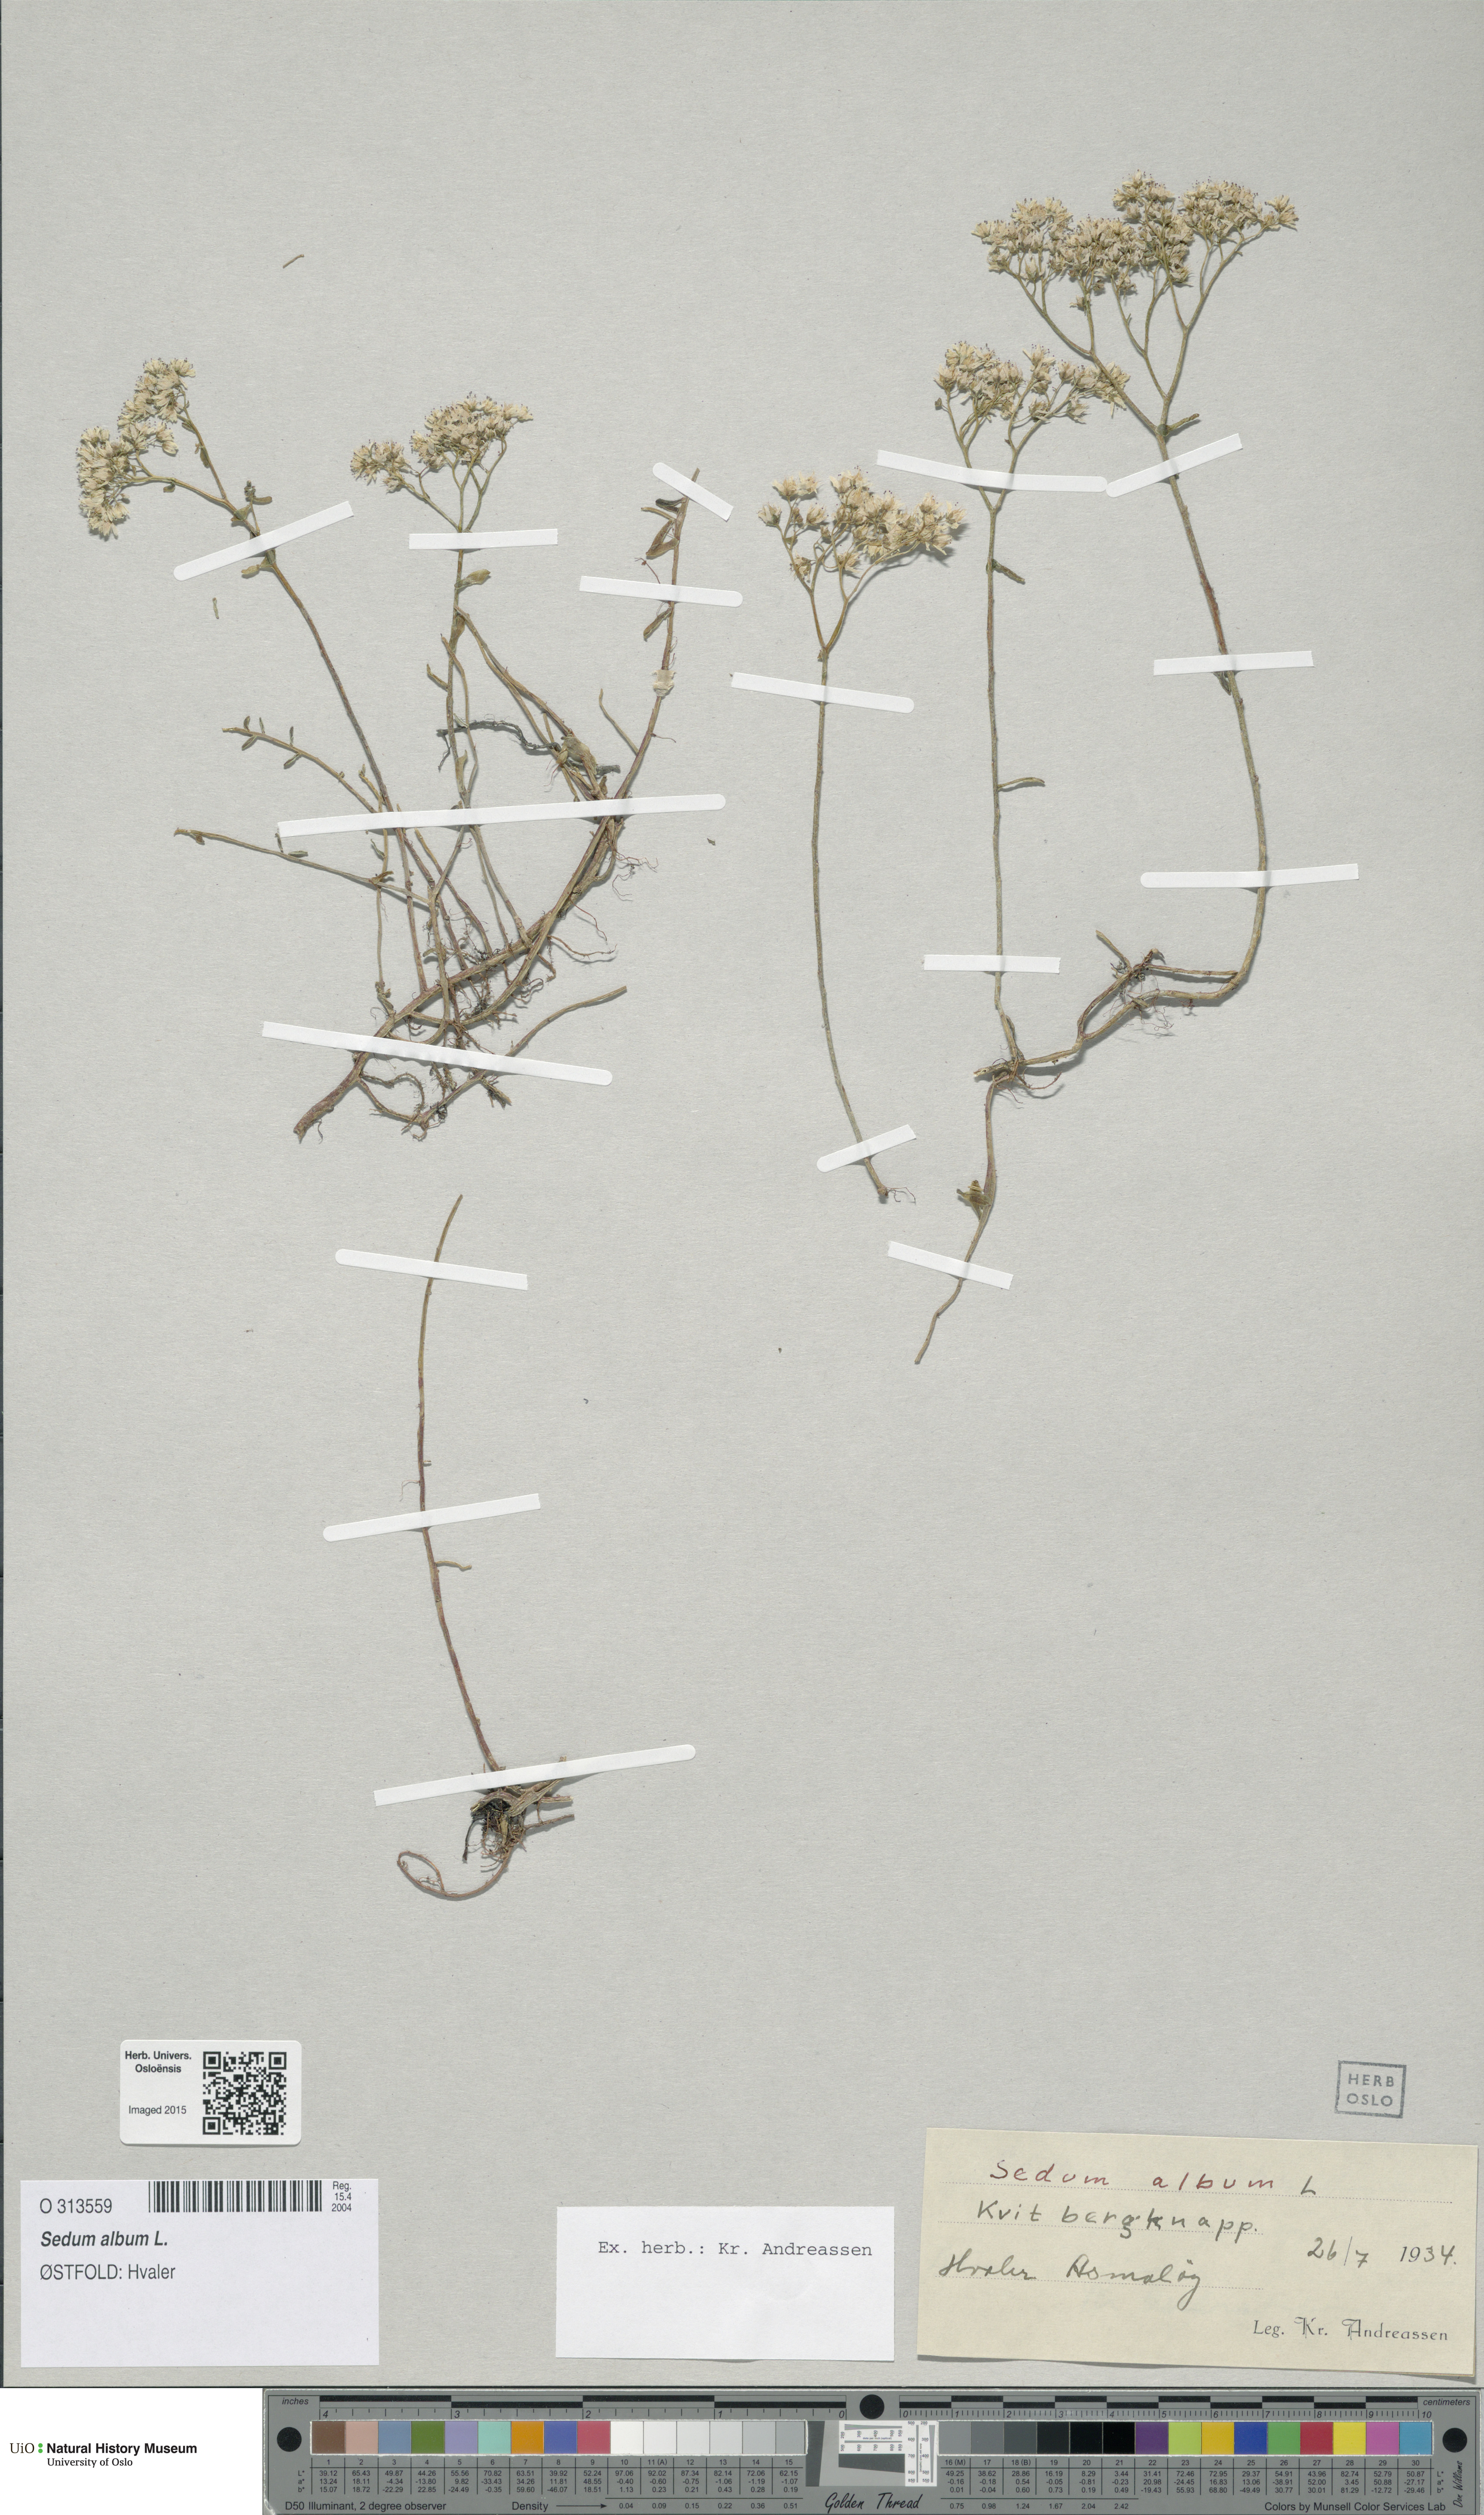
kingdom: Plantae
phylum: Tracheophyta
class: Magnoliopsida
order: Saxifragales
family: Crassulaceae
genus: Sedum
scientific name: Sedum album
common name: White stonecrop
